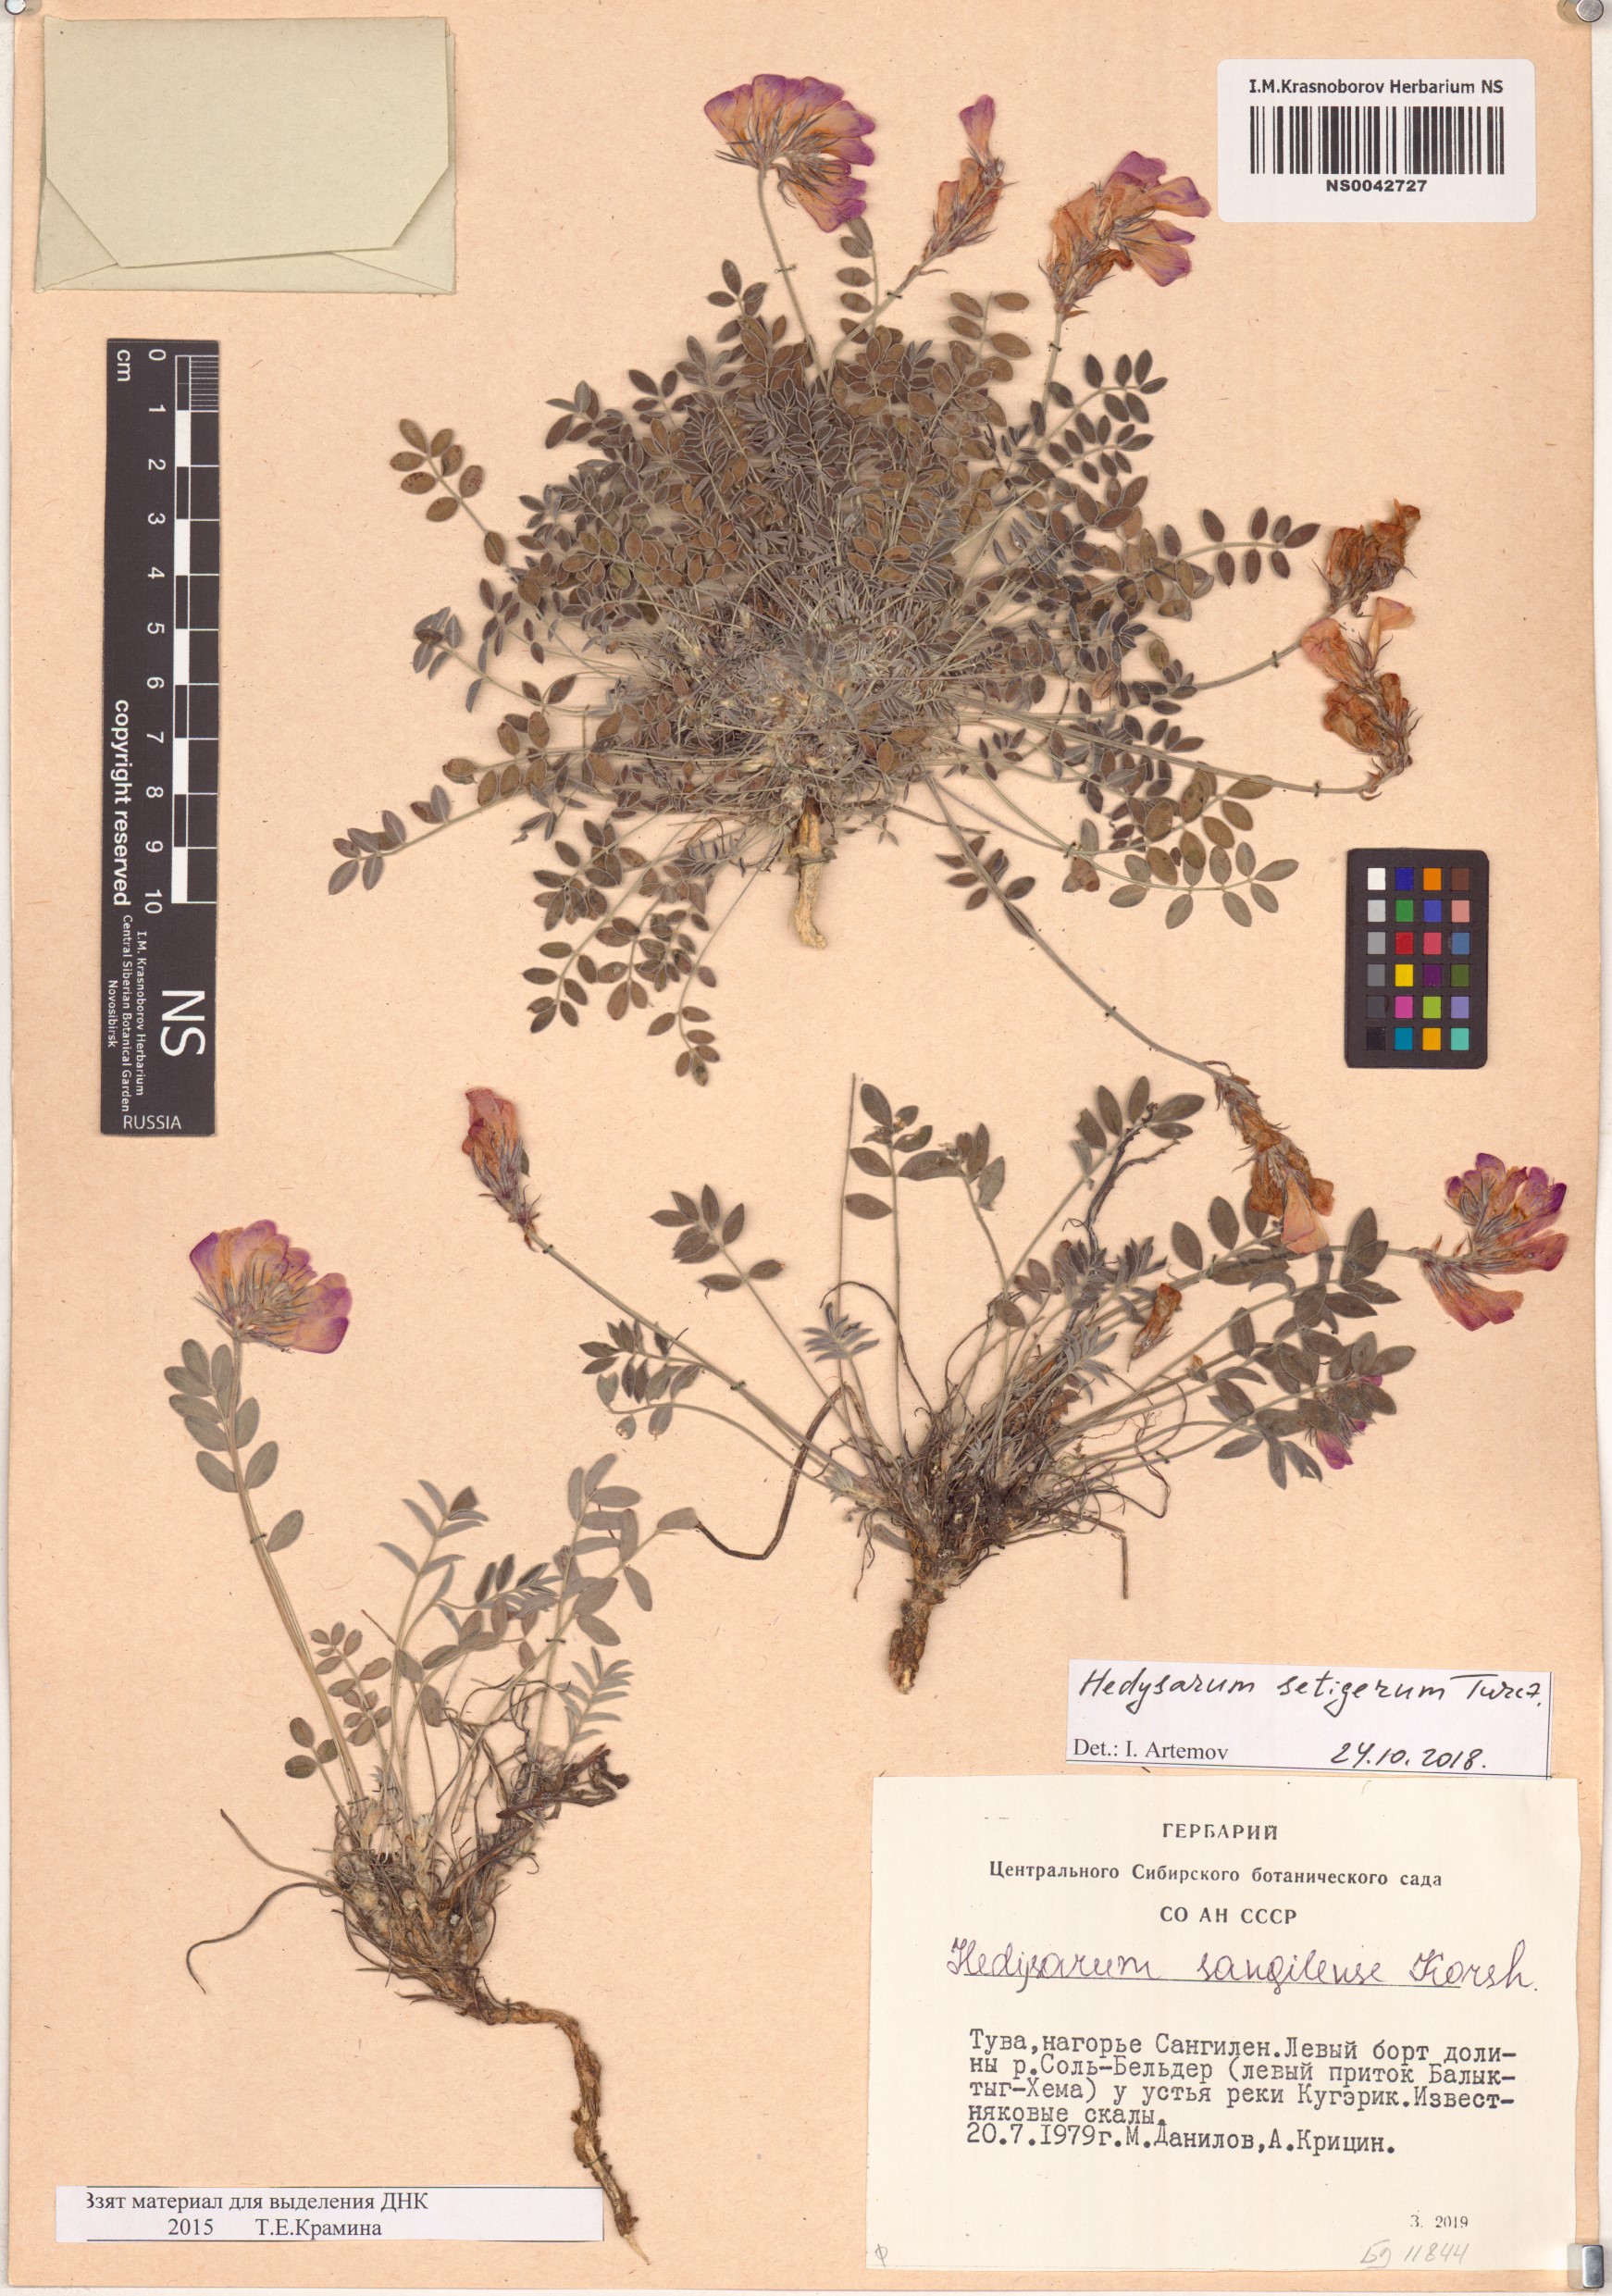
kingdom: Plantae
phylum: Tracheophyta
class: Magnoliopsida
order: Fabales
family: Fabaceae
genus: Hedysarum
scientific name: Hedysarum setigerum
